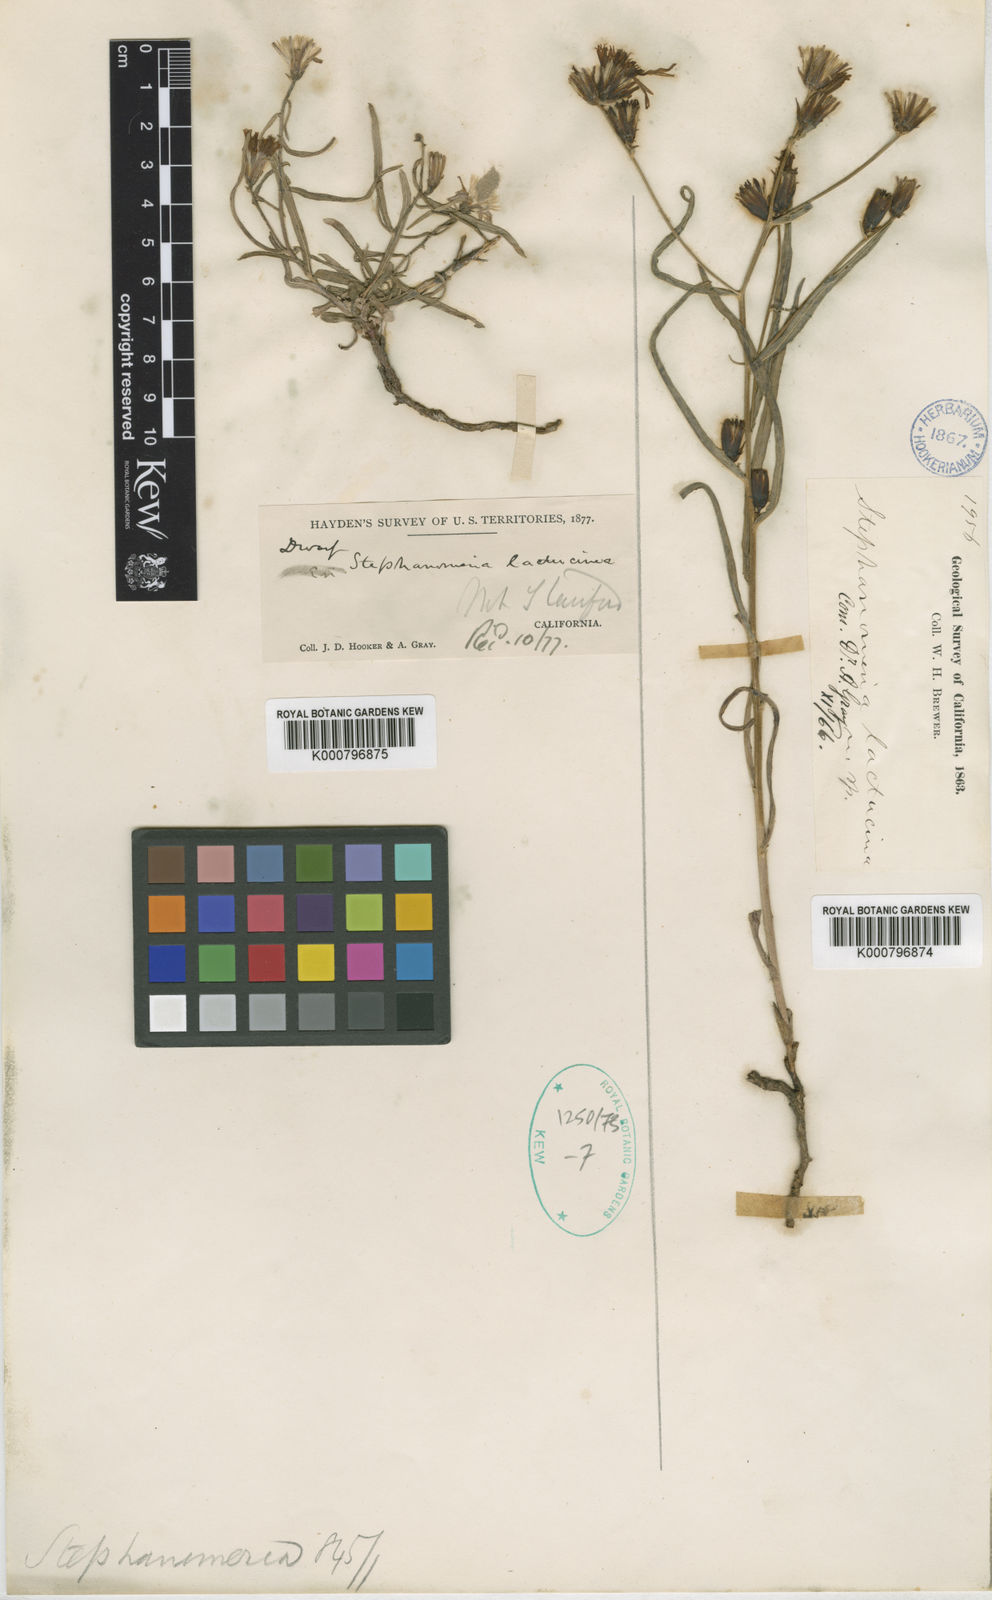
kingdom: Plantae
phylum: Tracheophyta
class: Magnoliopsida
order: Asterales
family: Asteraceae
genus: Stephanomeria
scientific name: Stephanomeria lactucina
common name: Large-flowered wirelettuce
